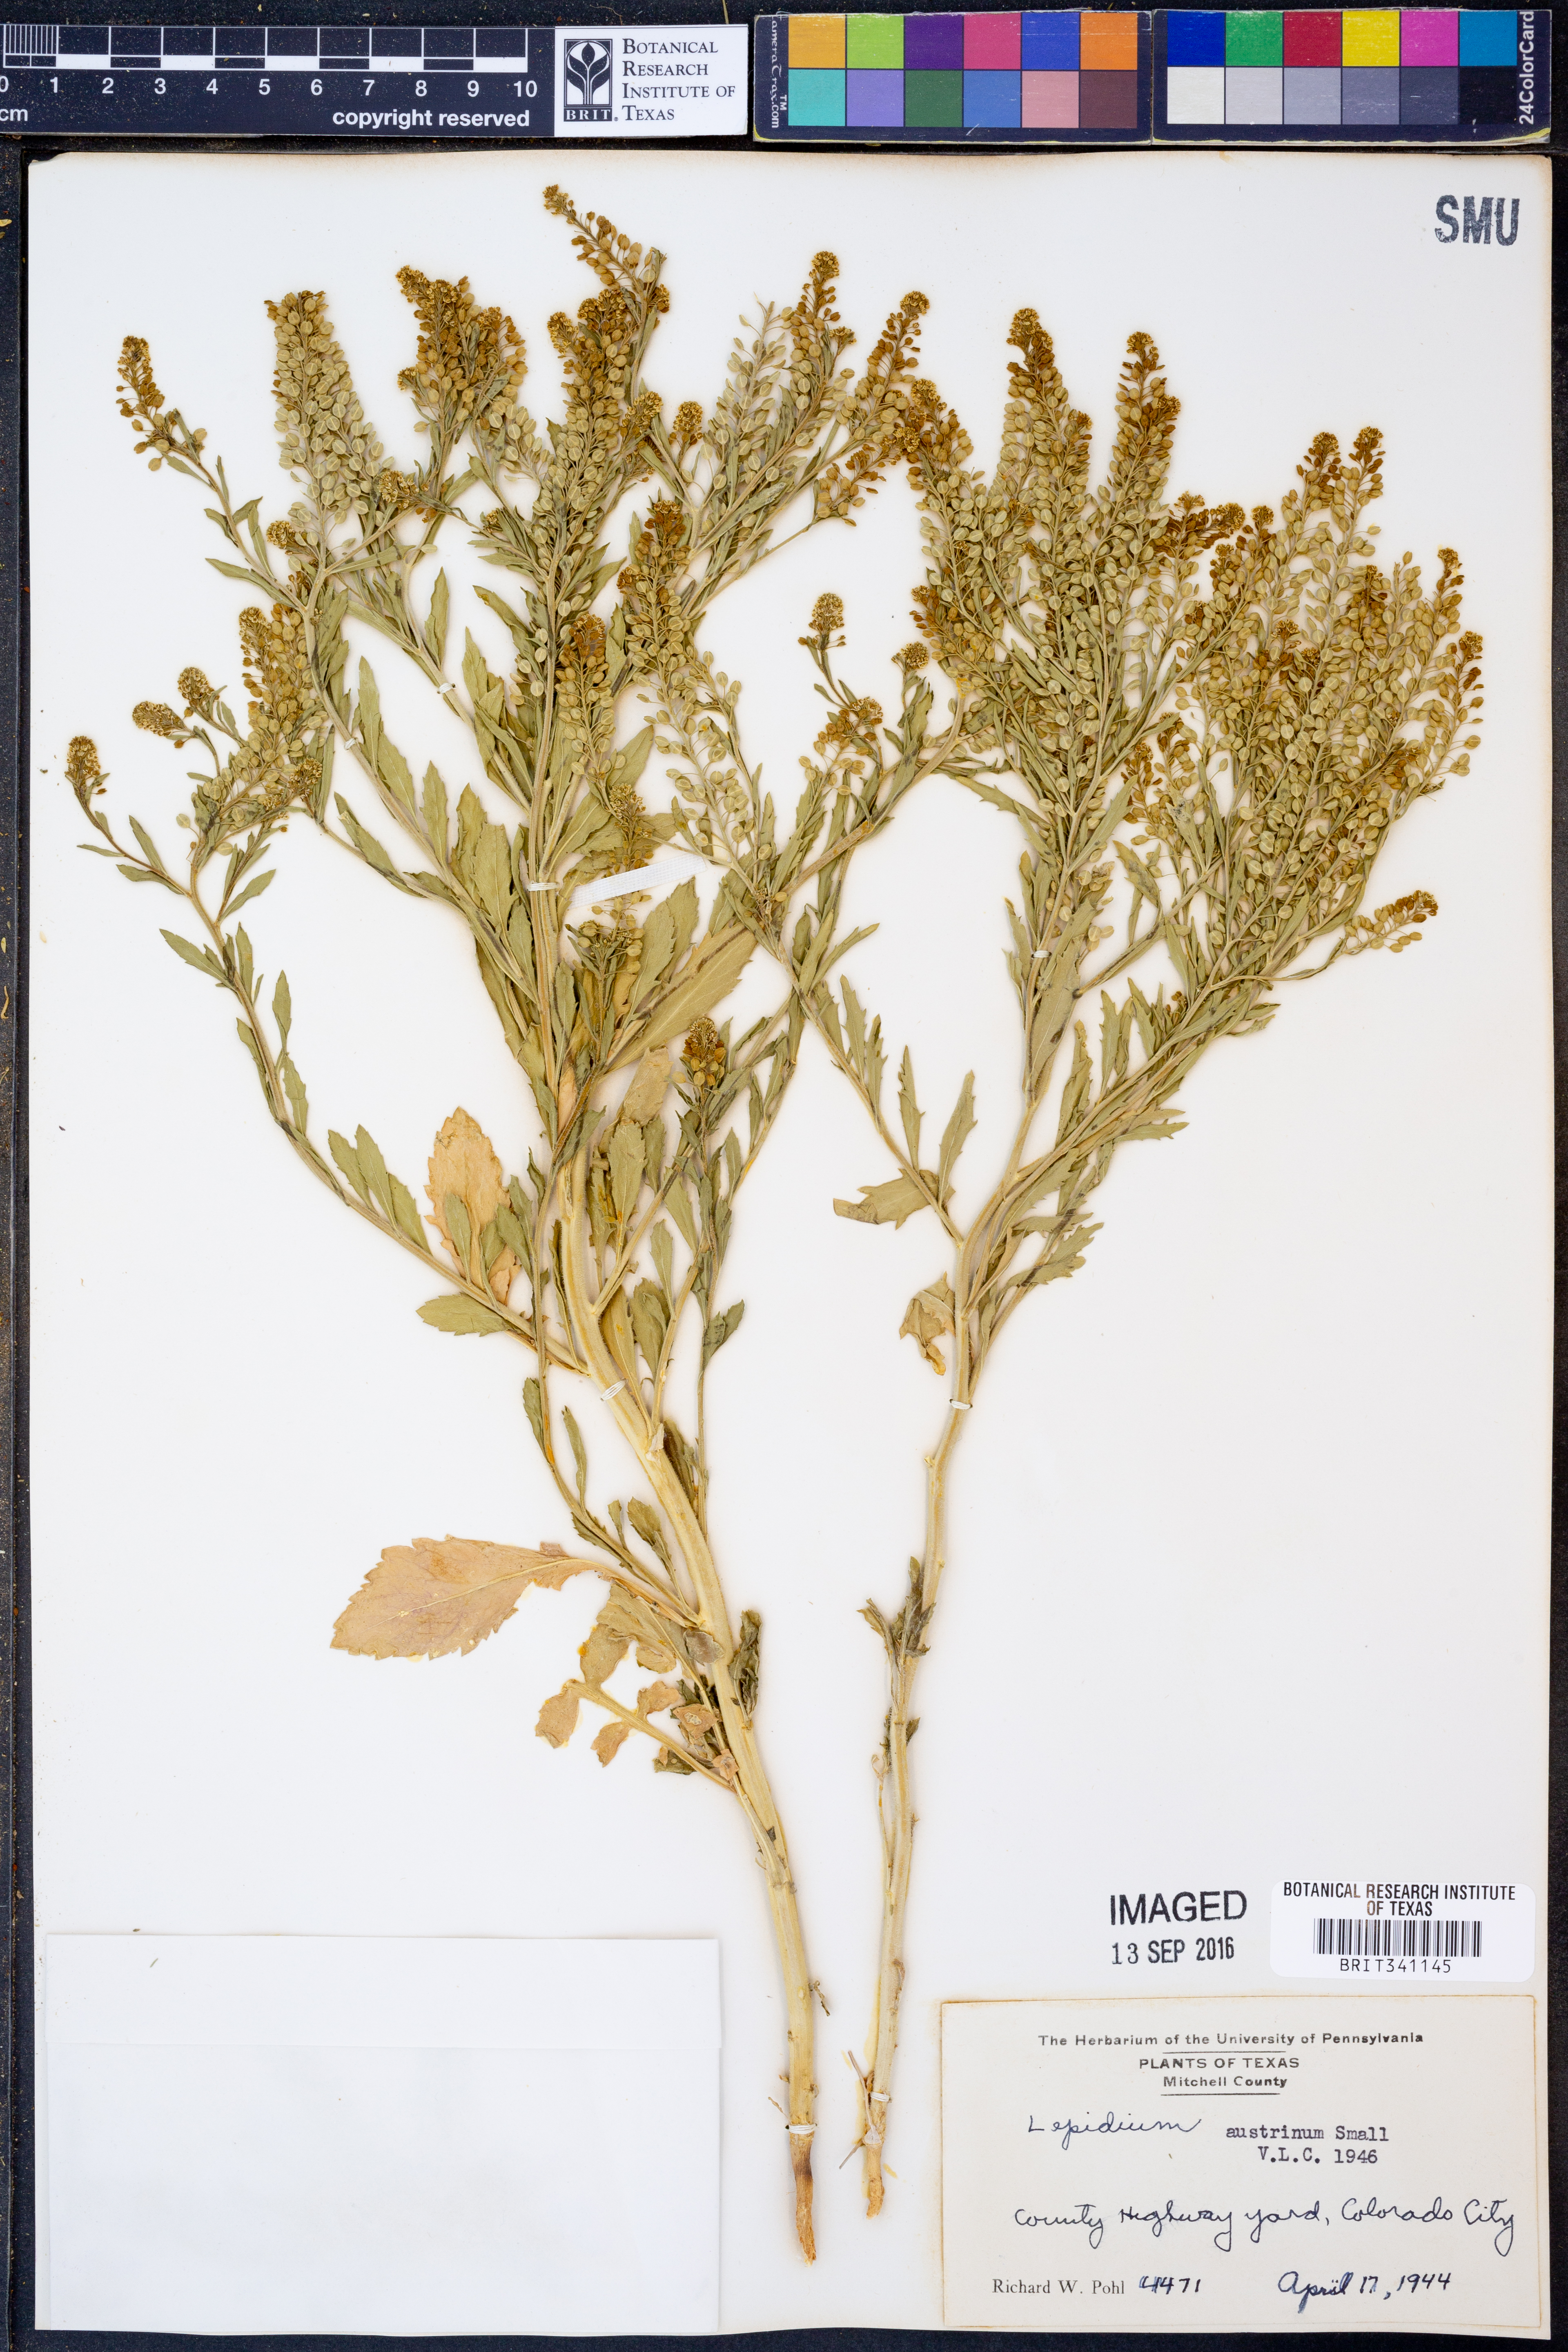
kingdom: Plantae
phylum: Tracheophyta
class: Magnoliopsida
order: Brassicales
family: Brassicaceae
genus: Lepidium
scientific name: Lepidium austrinum
